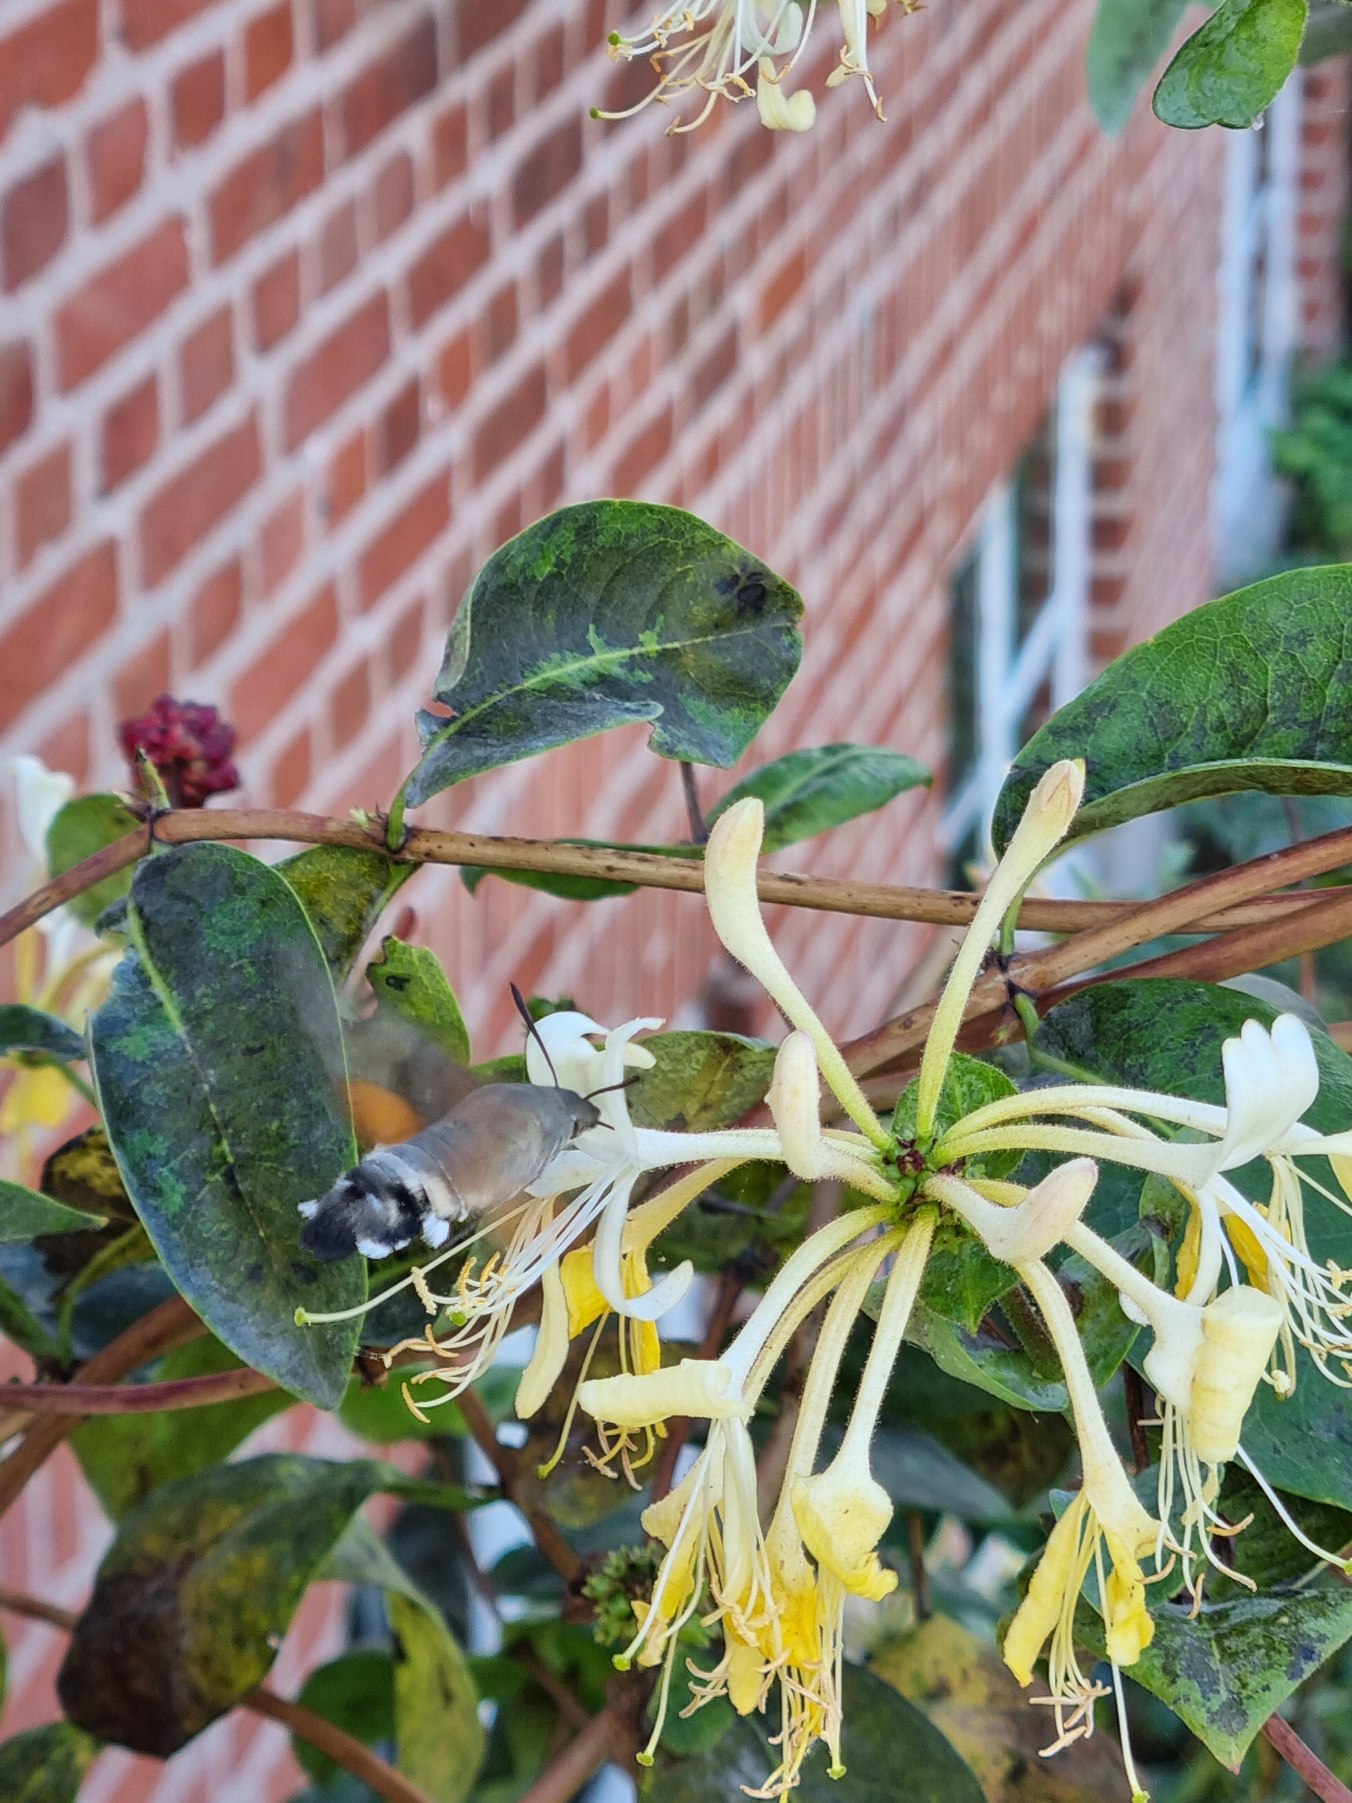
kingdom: Animalia
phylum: Arthropoda
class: Insecta
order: Lepidoptera
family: Sphingidae
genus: Macroglossum
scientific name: Macroglossum stellatarum
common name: Duehale
